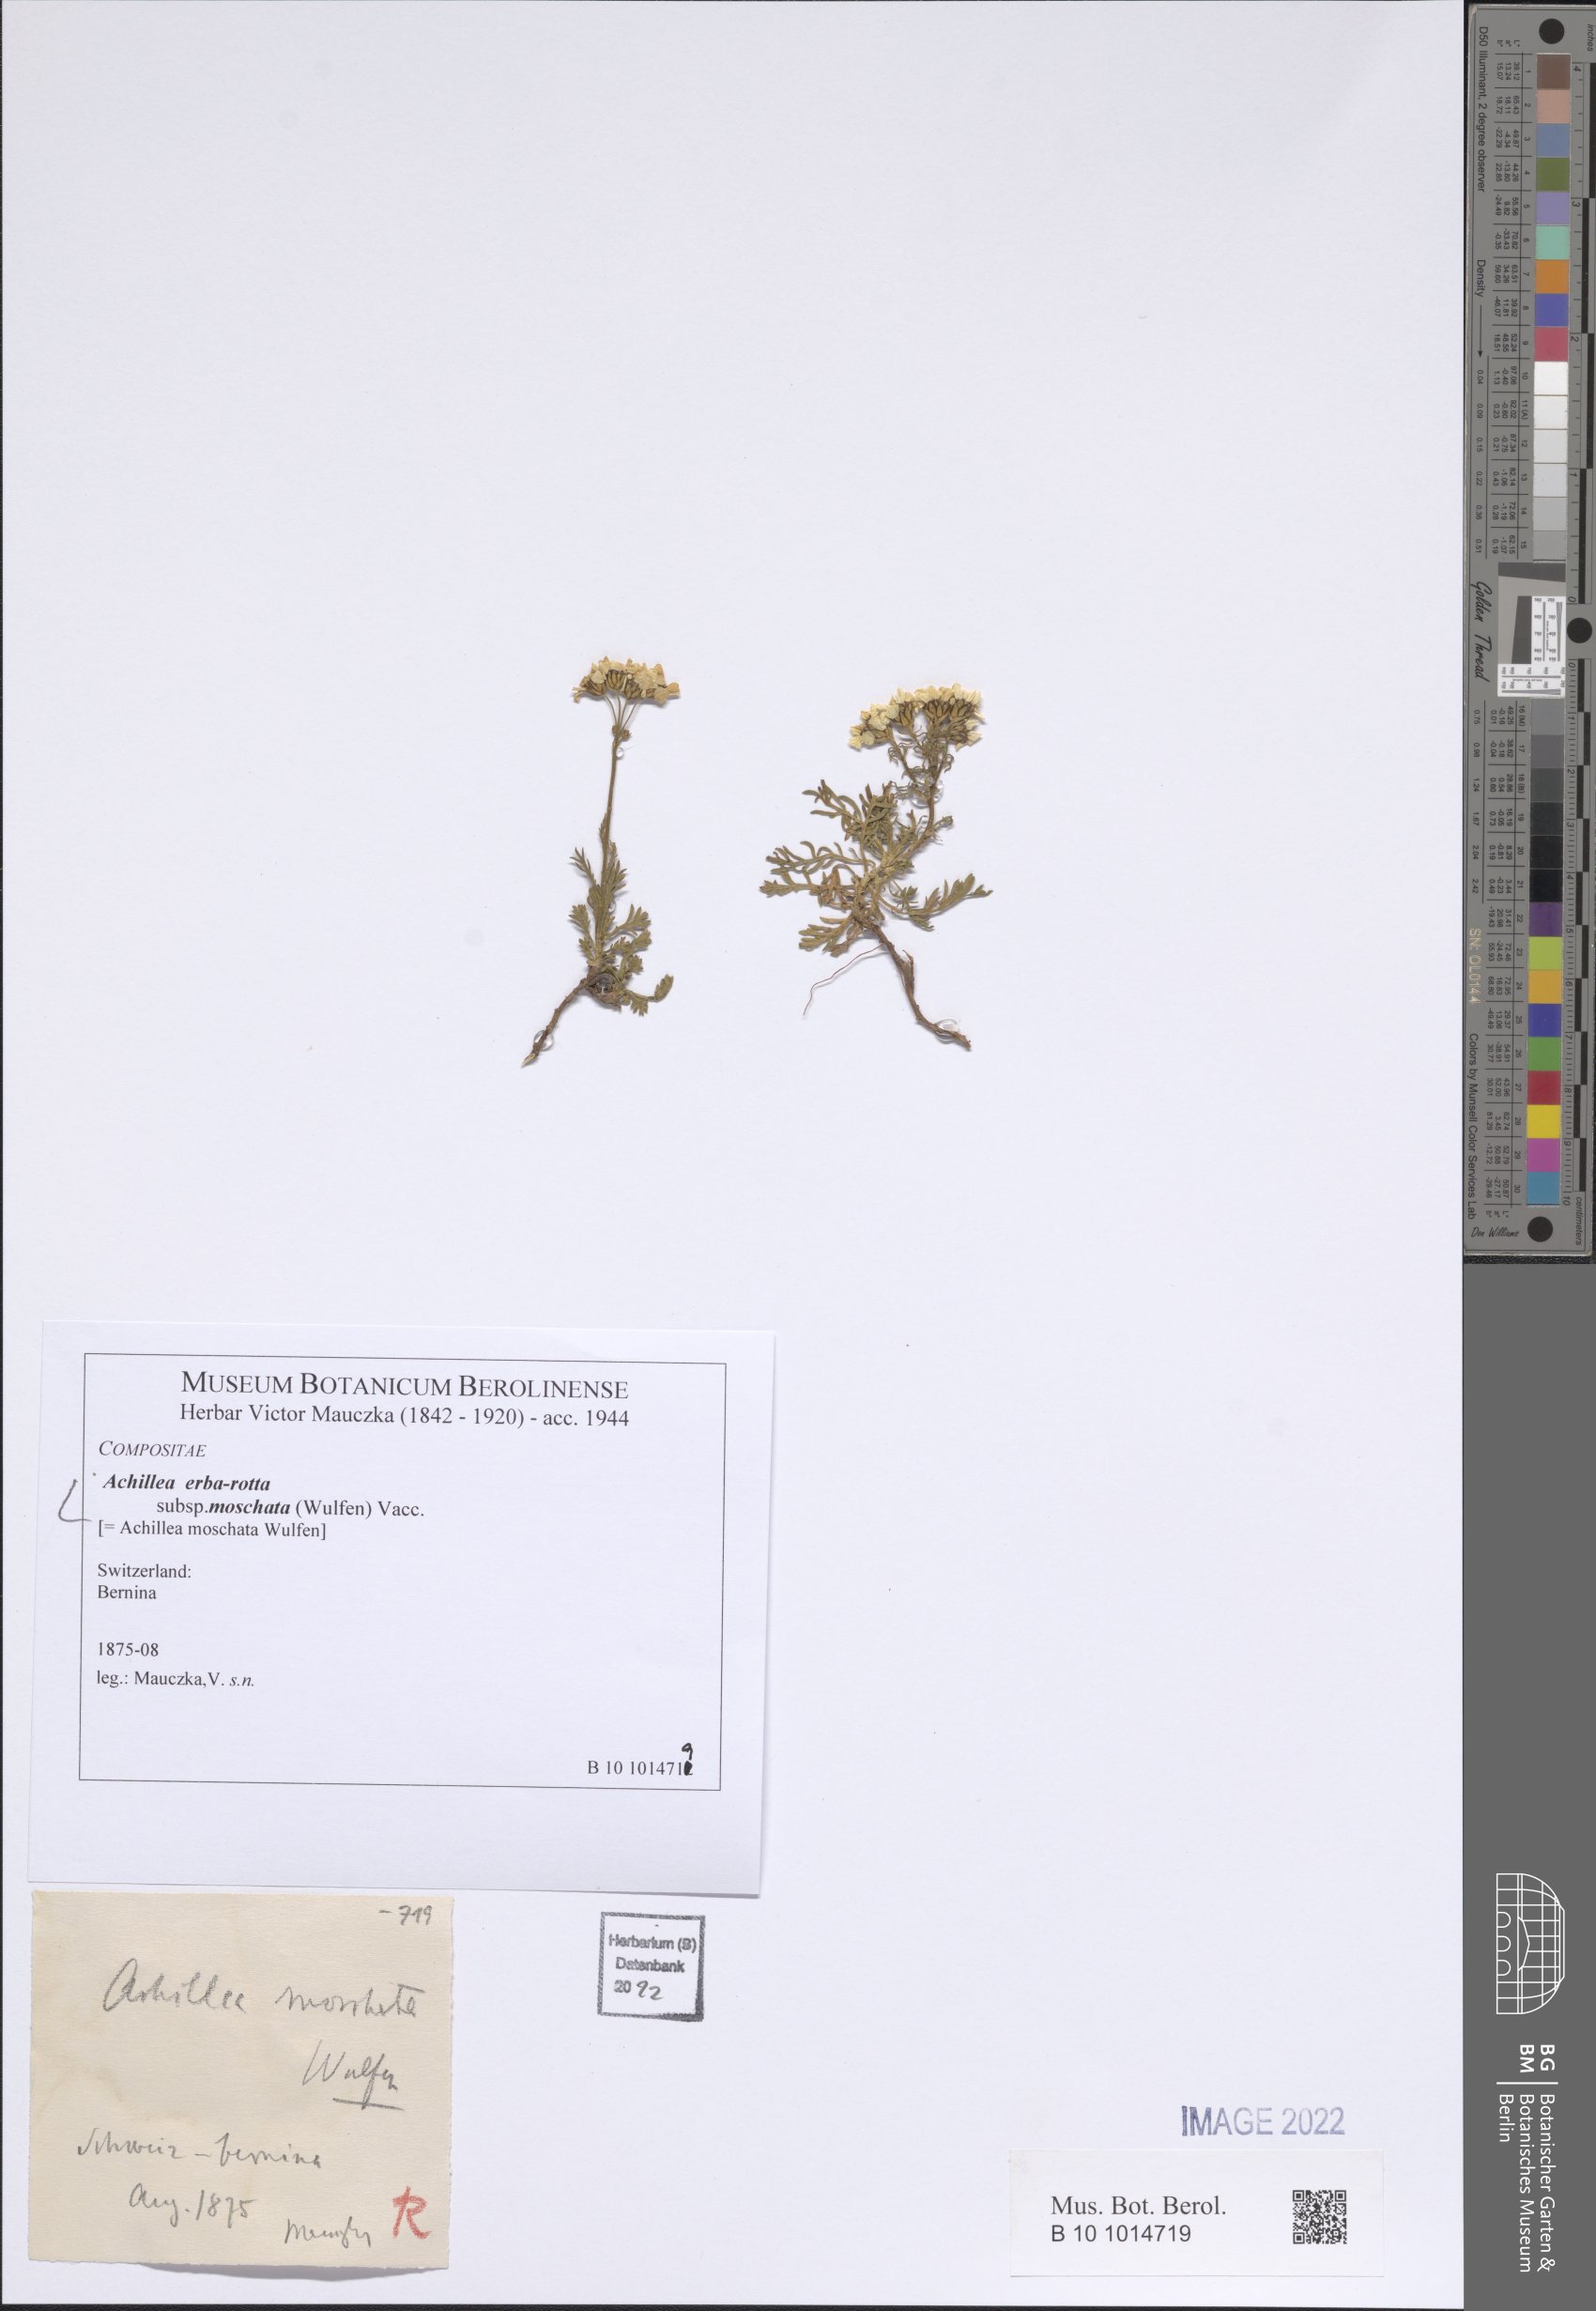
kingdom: Plantae
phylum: Tracheophyta
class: Magnoliopsida
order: Asterales
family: Asteraceae
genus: Achillea
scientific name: Achillea erba-rotta
